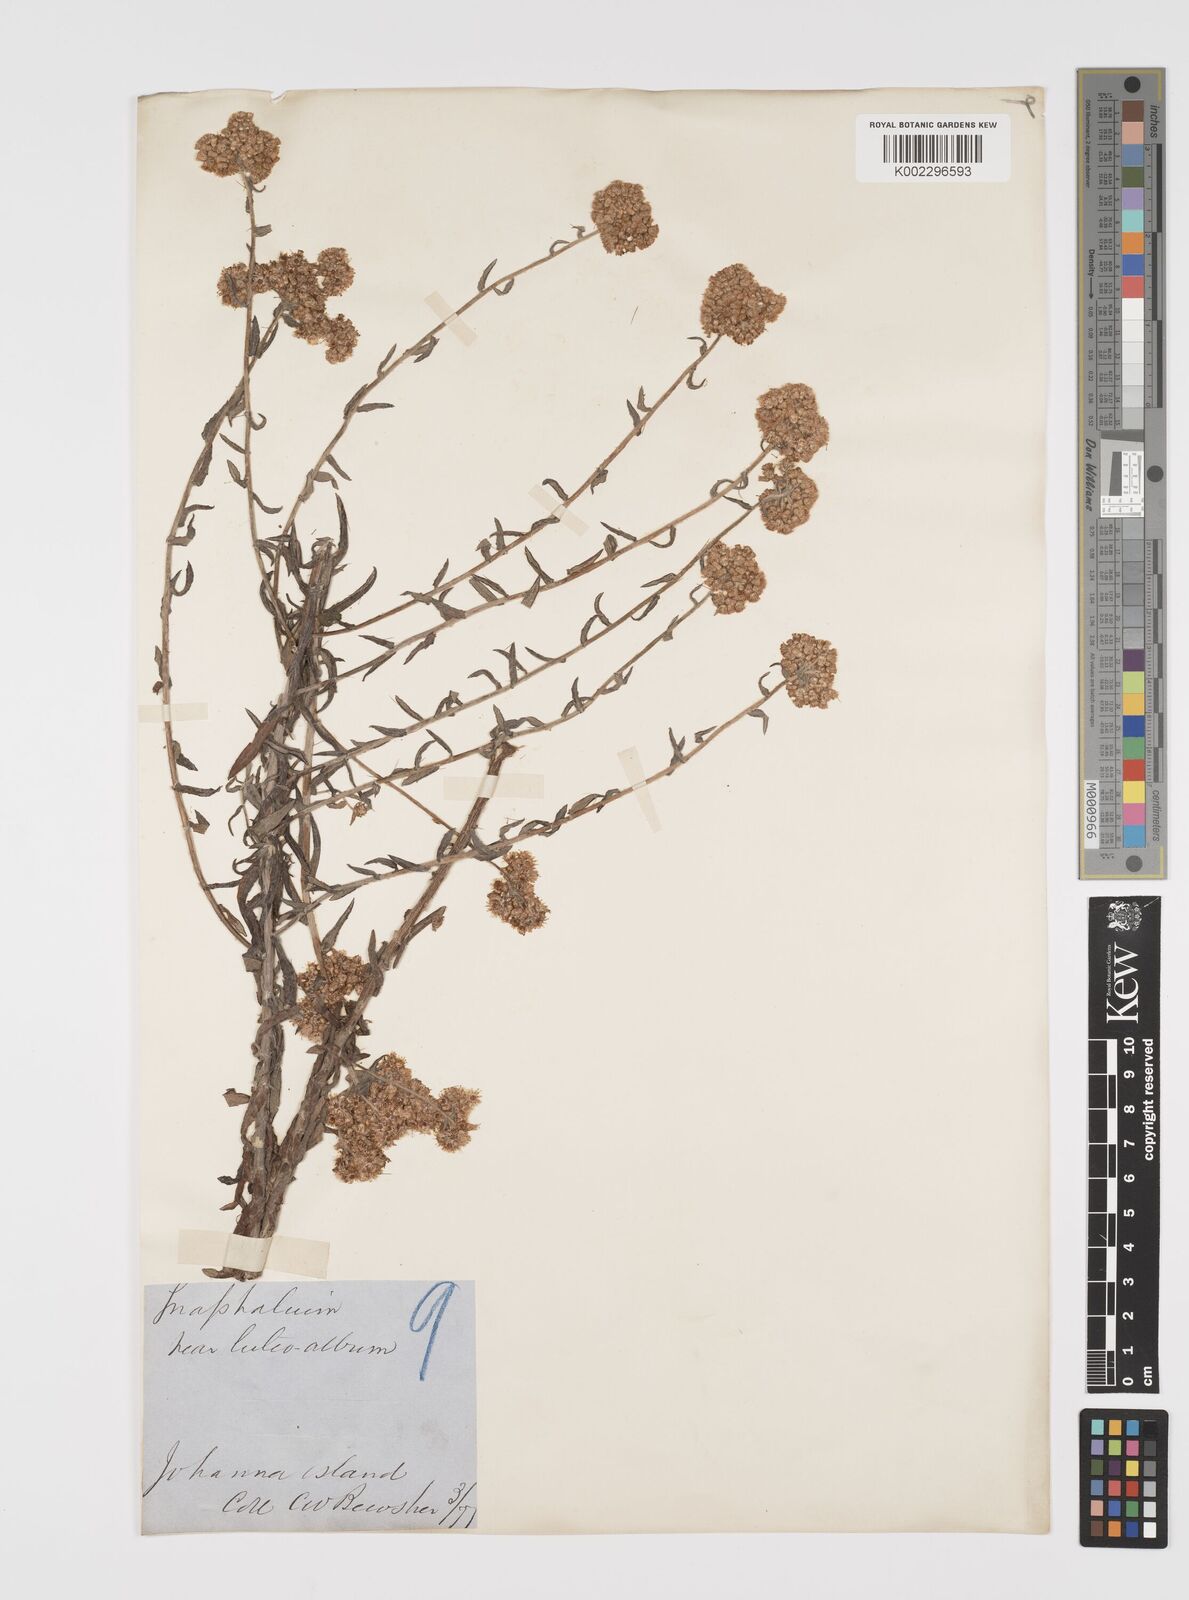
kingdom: Plantae
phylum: Tracheophyta
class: Magnoliopsida
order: Asterales
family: Asteraceae
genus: Pseudognaphalium
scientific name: Pseudognaphalium
